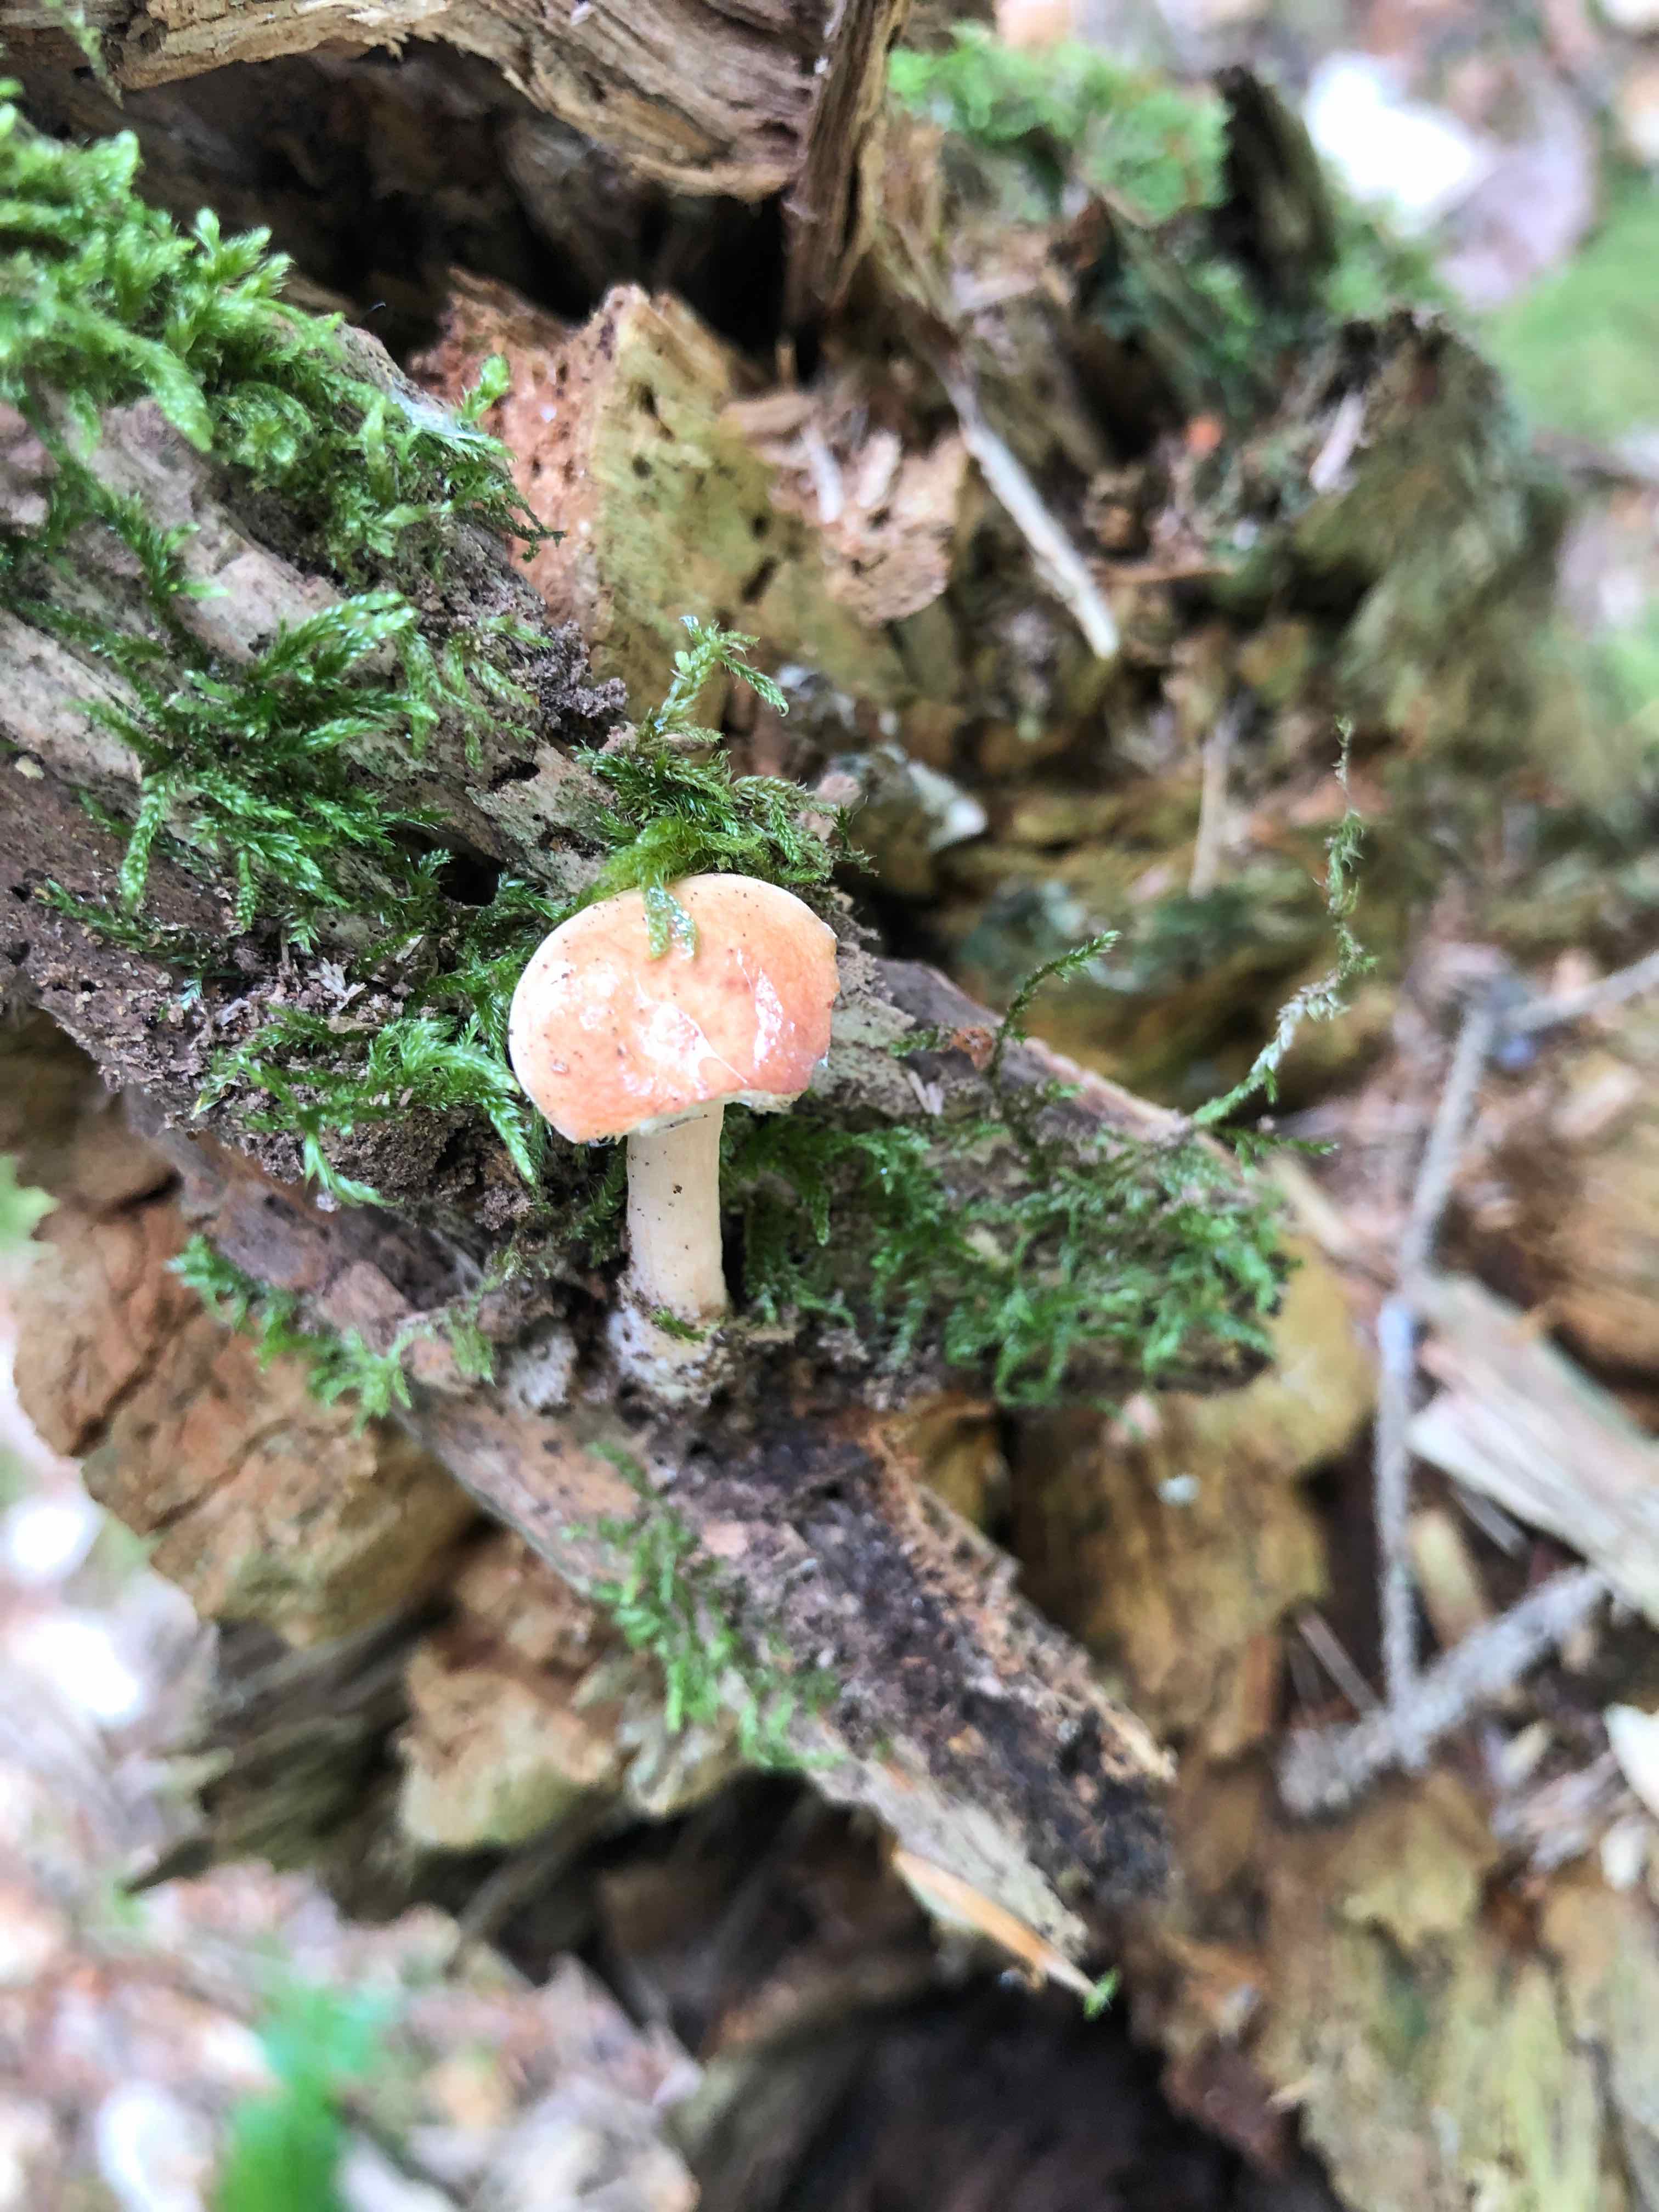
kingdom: Fungi
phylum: Basidiomycota
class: Agaricomycetes
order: Russulales
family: Russulaceae
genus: Russula
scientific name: Russula
